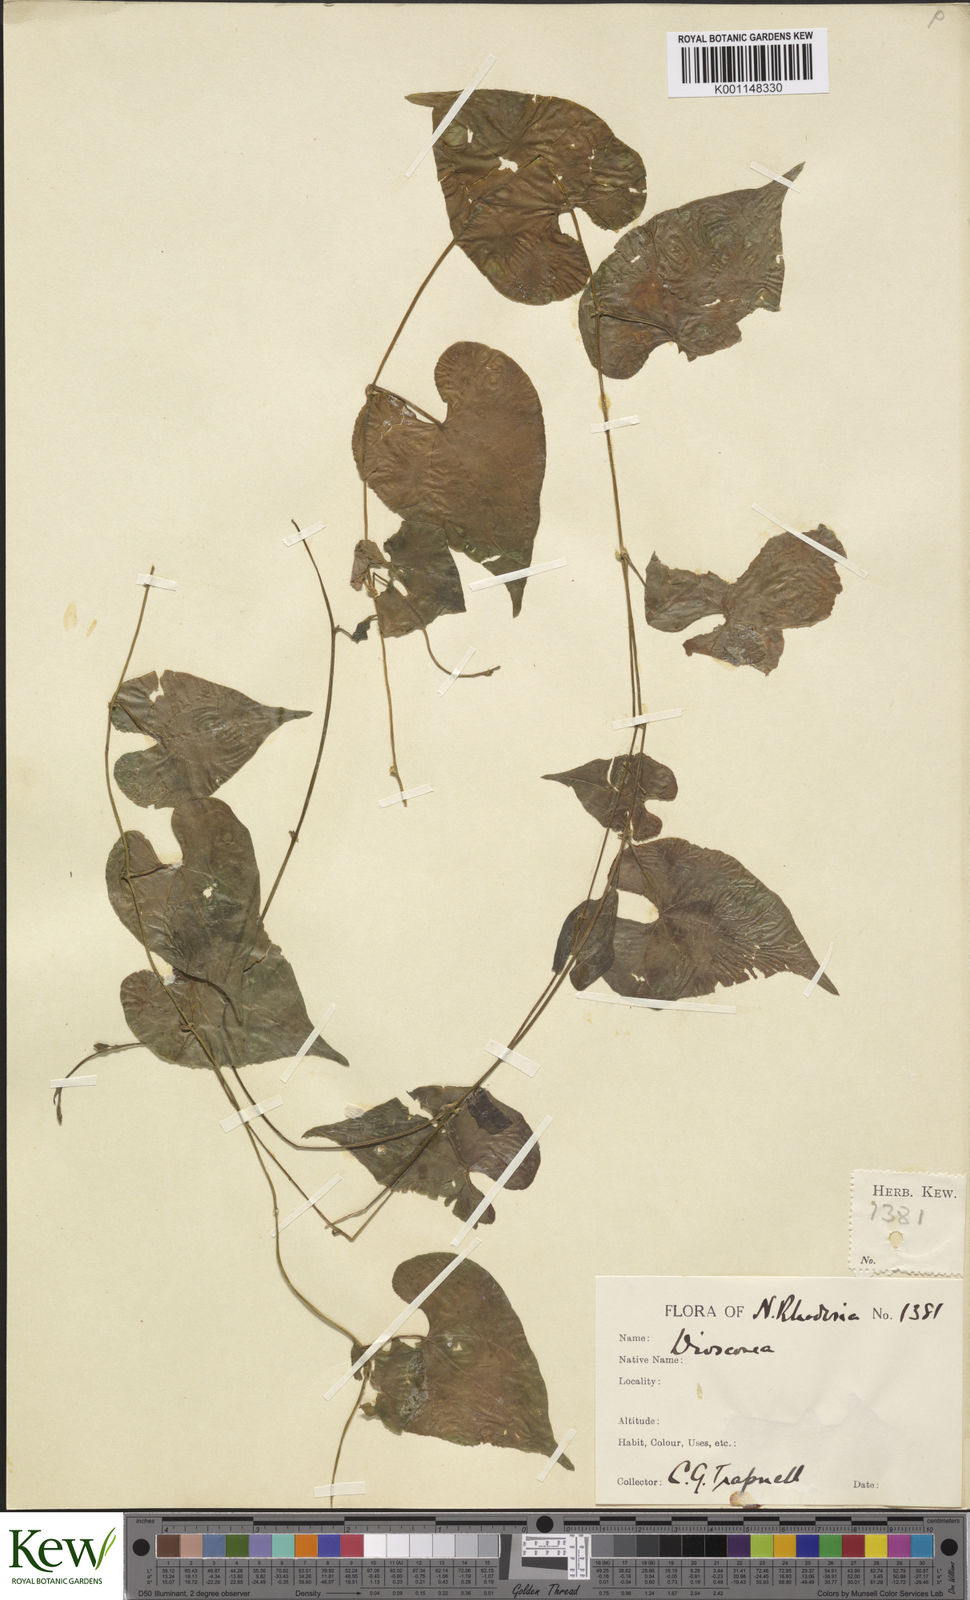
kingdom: Plantae
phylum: Tracheophyta
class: Liliopsida
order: Dioscoreales
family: Dioscoreaceae
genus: Dioscorea
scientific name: Dioscorea
